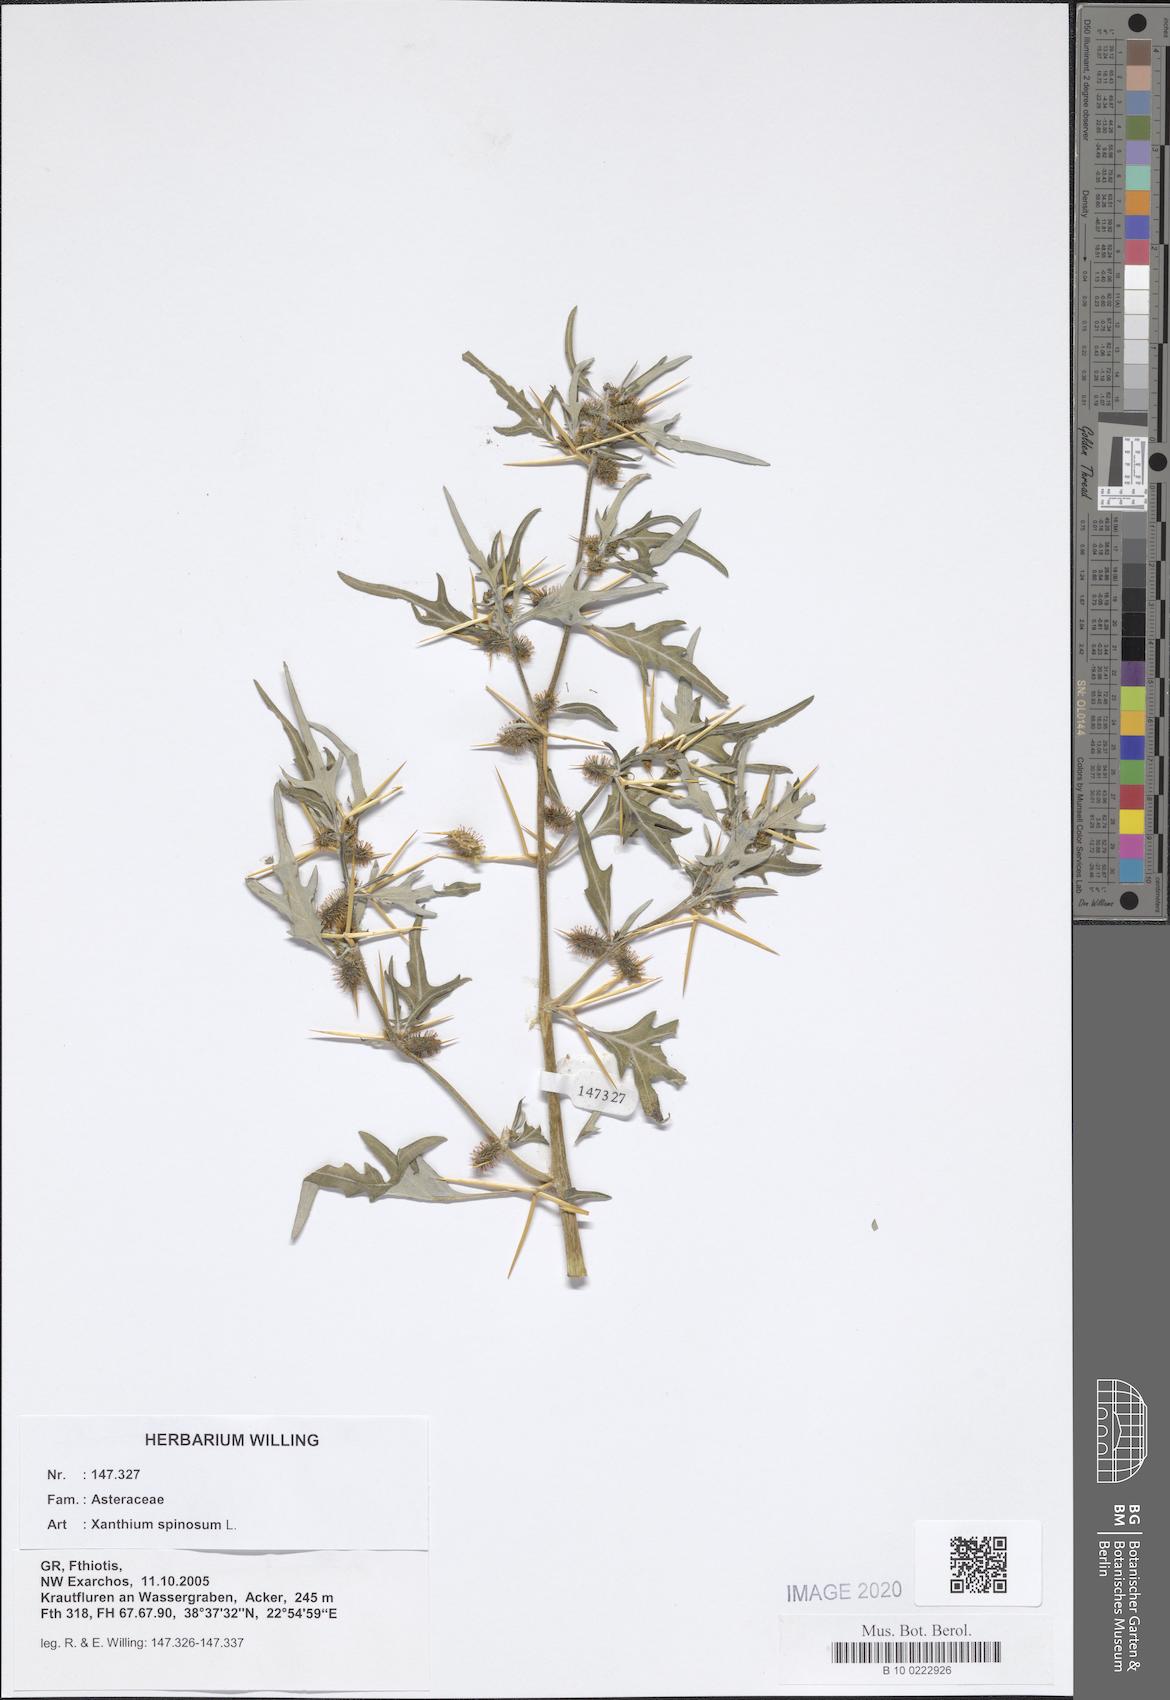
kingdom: Plantae
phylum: Tracheophyta
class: Magnoliopsida
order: Asterales
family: Asteraceae
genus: Xanthium
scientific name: Xanthium spinosum
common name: Spiny cocklebur
